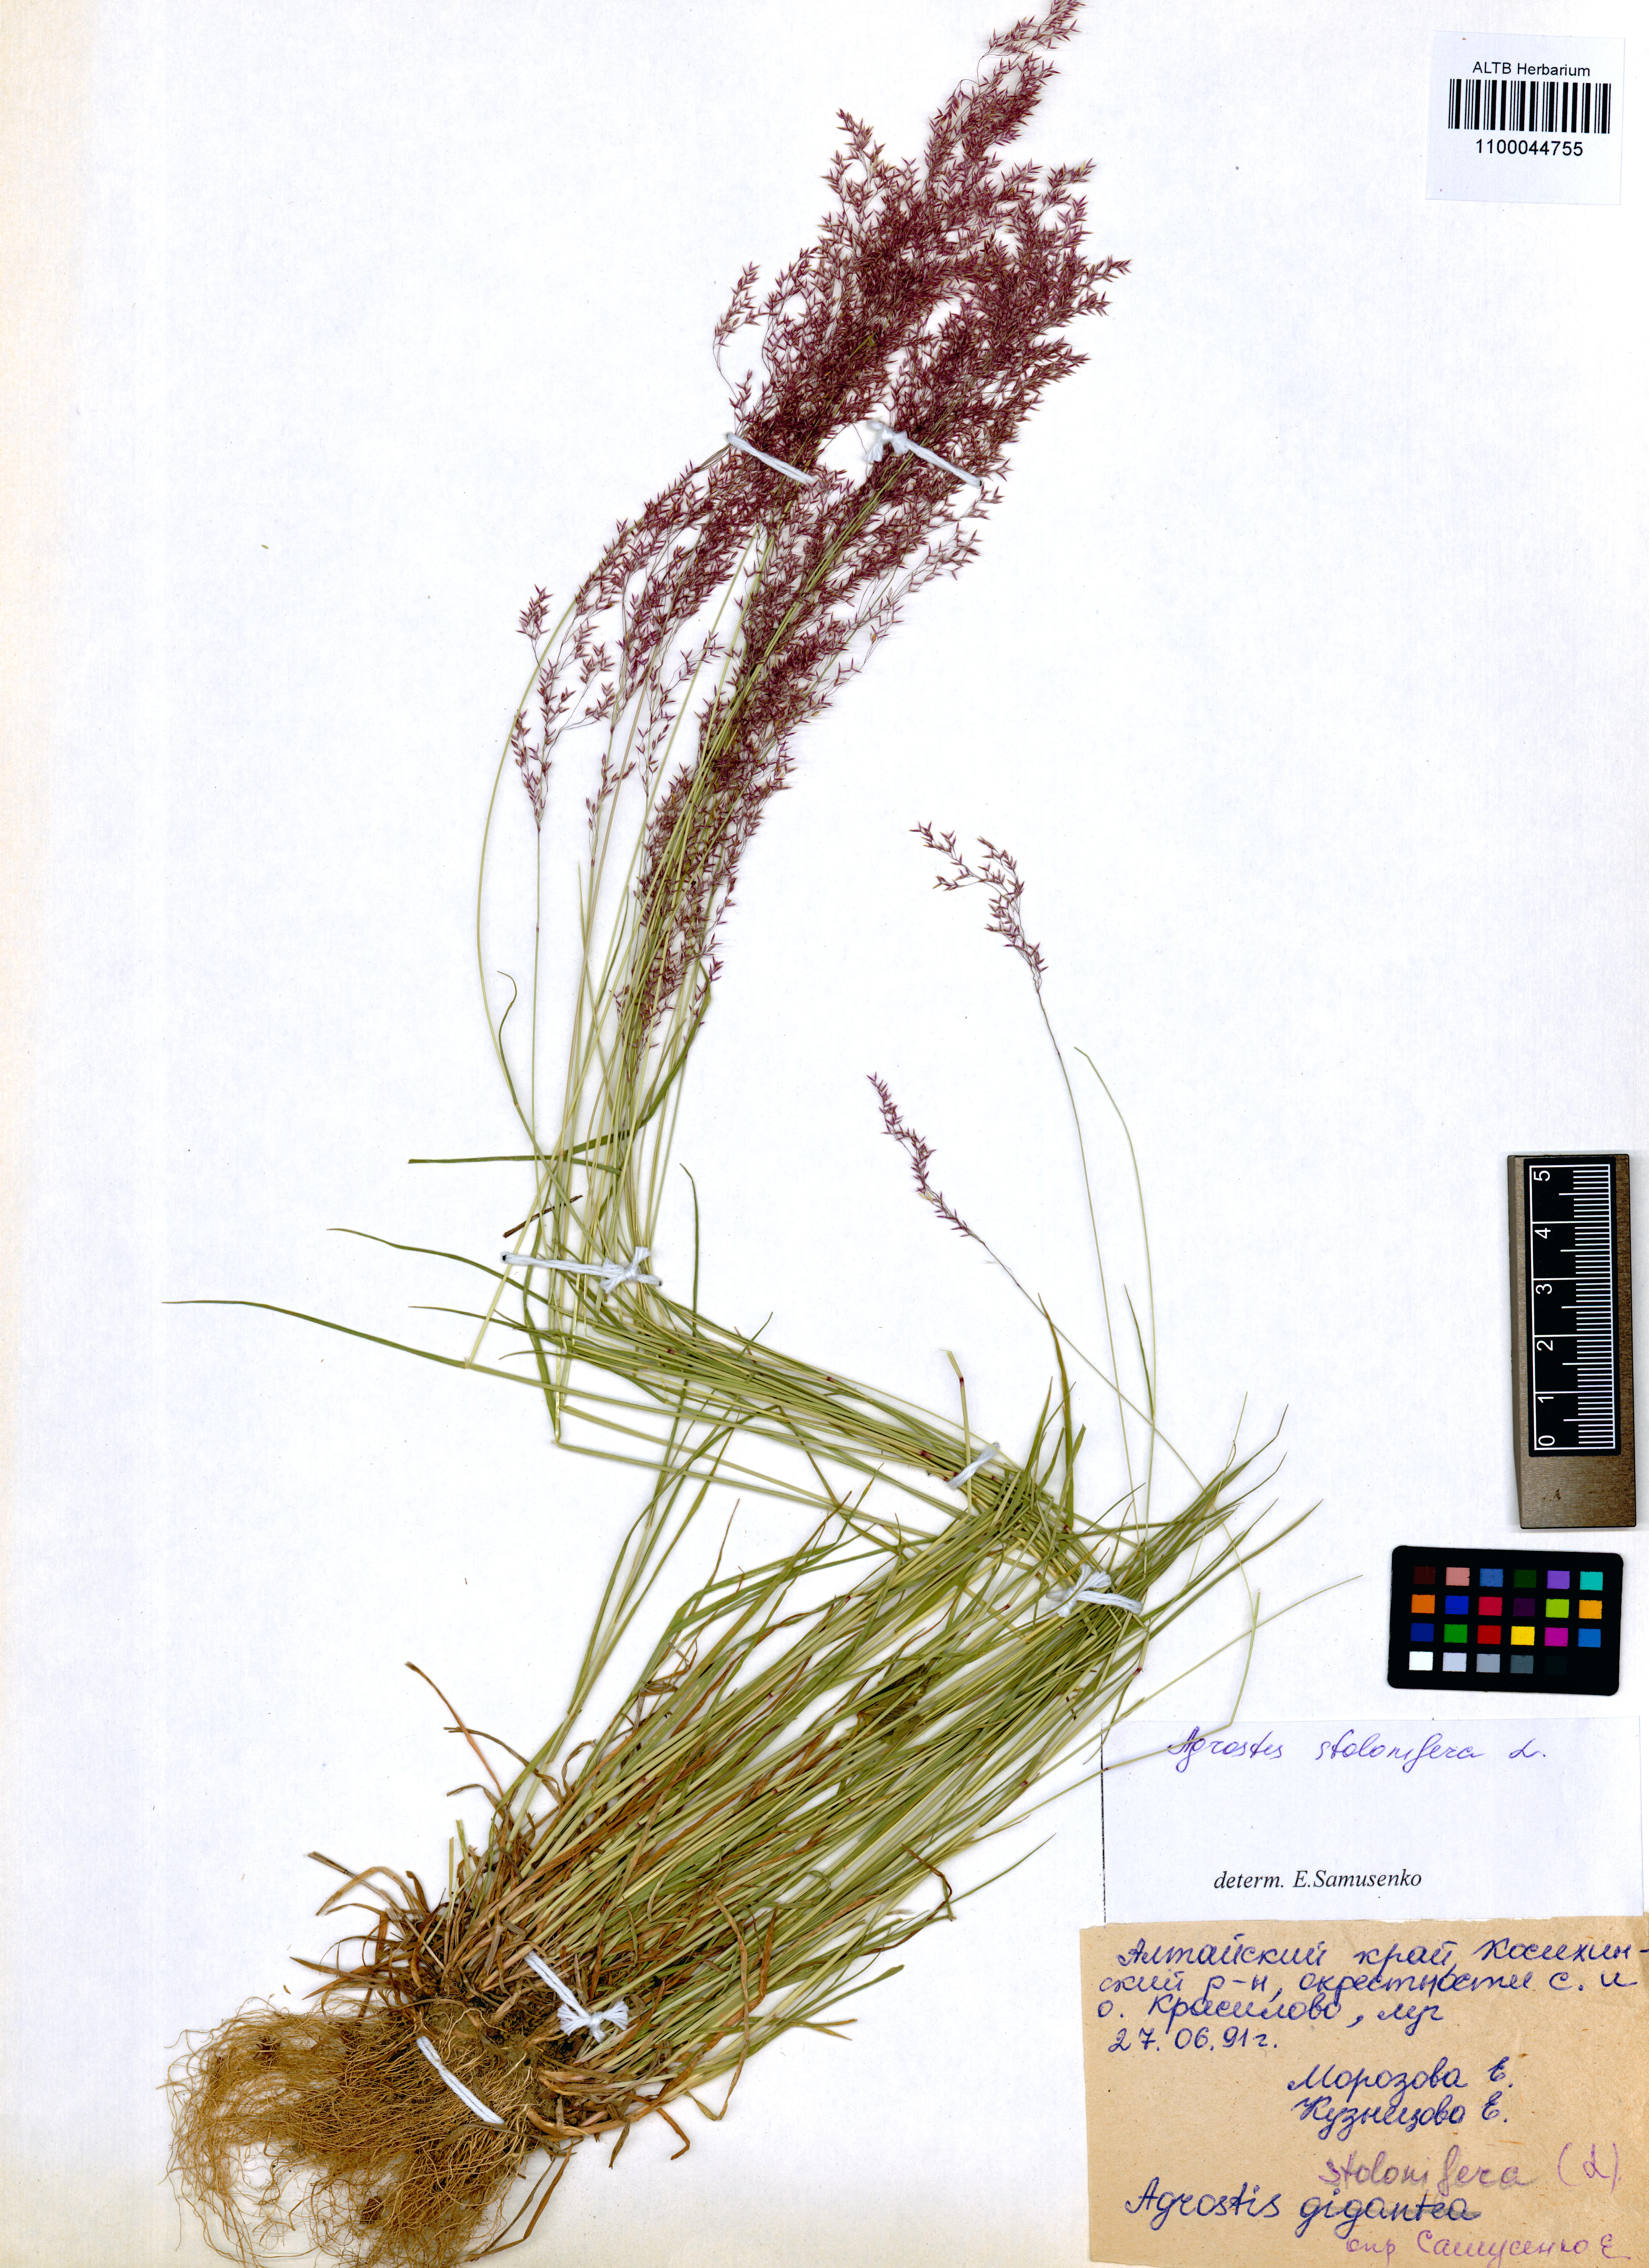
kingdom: Plantae
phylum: Tracheophyta
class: Liliopsida
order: Poales
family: Poaceae
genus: Agrostis
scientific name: Agrostis stolonifera
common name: Creeping bentgrass
